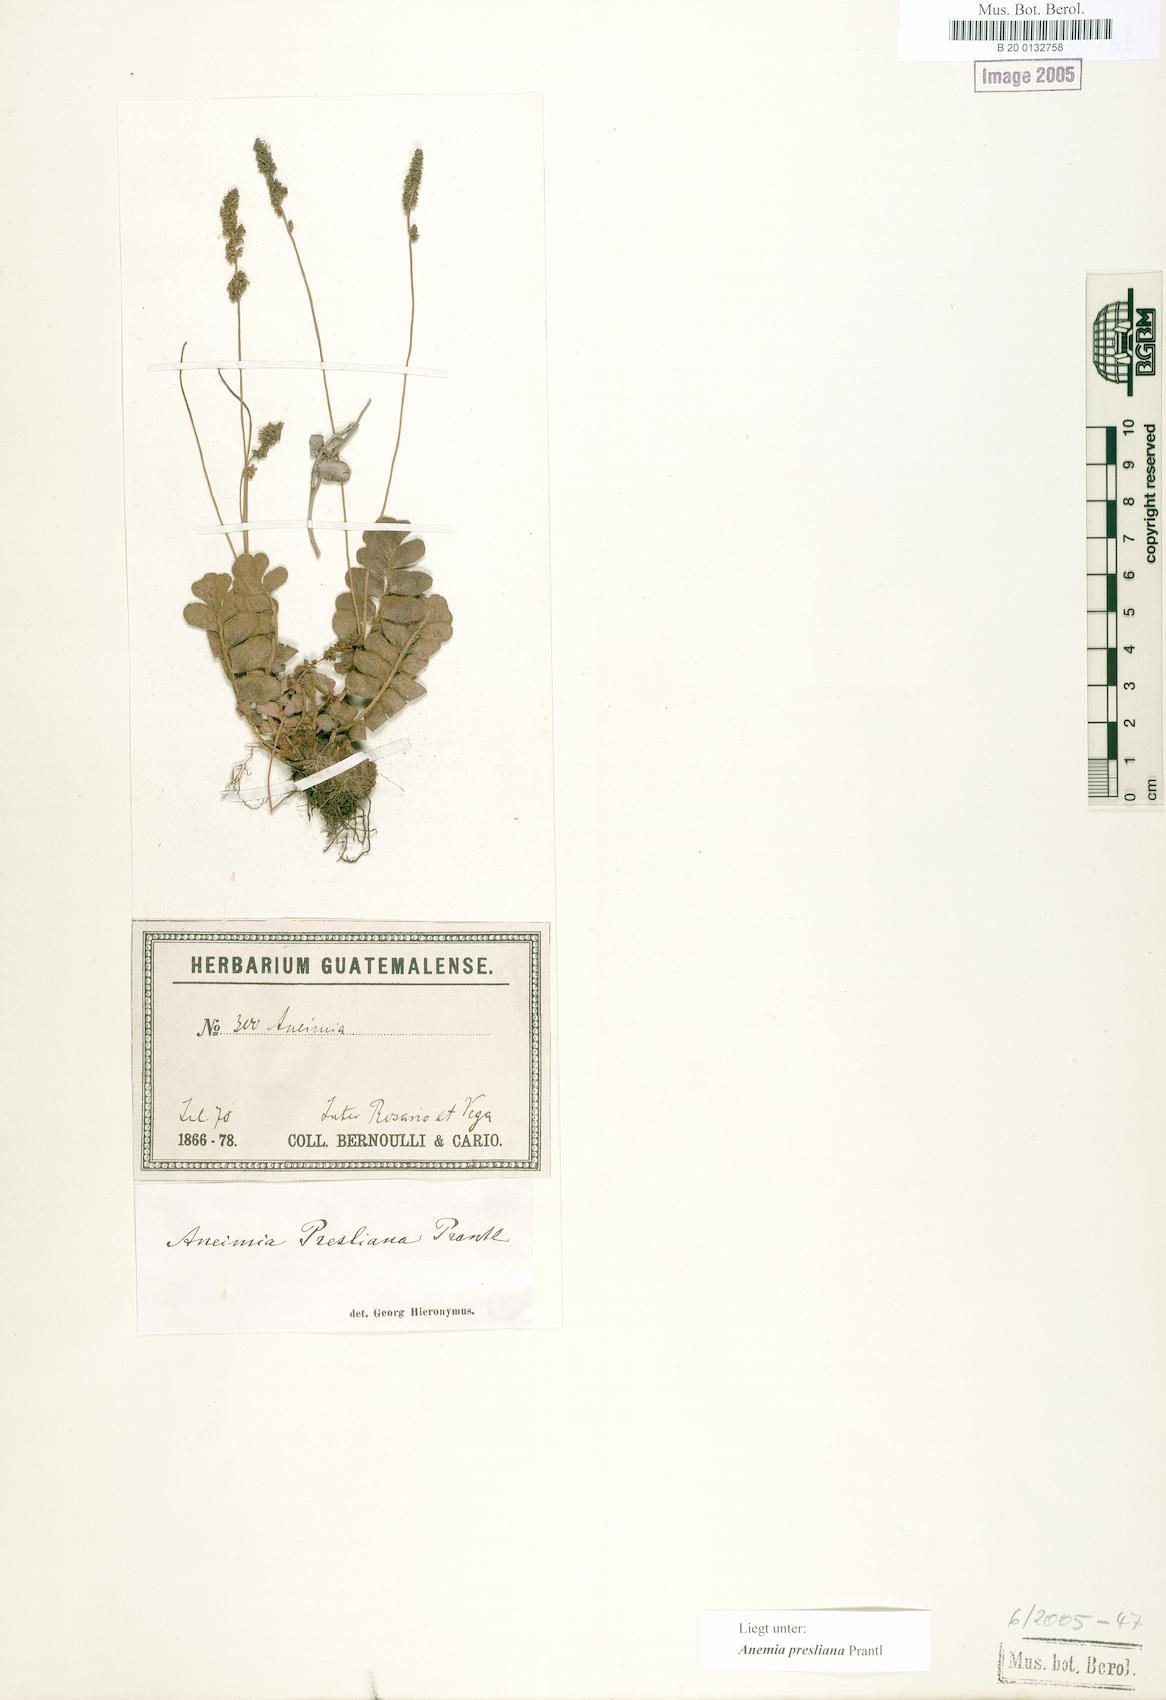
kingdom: Plantae
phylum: Tracheophyta
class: Polypodiopsida
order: Schizaeales
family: Anemiaceae
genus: Anemia
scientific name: Anemia presliana
